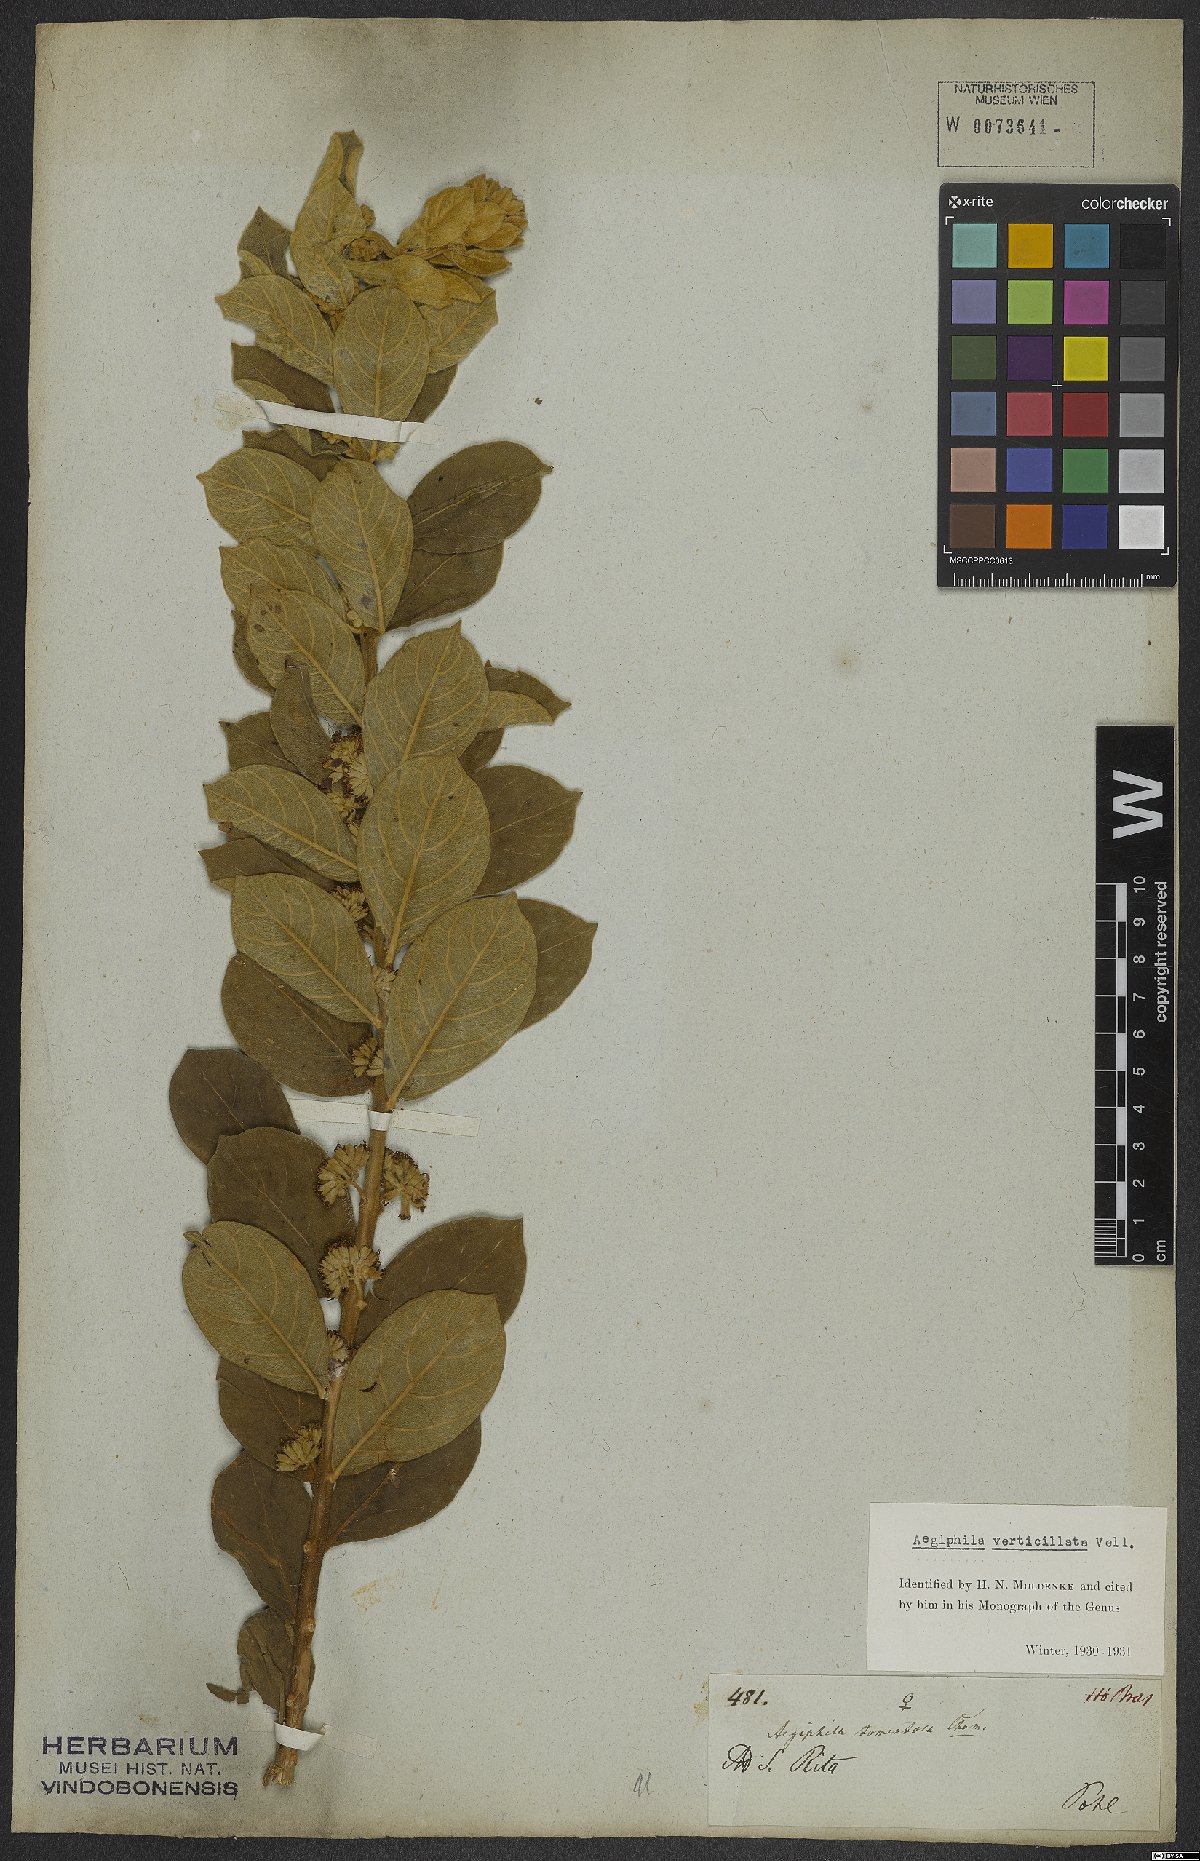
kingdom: Plantae
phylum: Tracheophyta
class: Magnoliopsida
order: Lamiales
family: Lamiaceae
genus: Aegiphila
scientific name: Aegiphila verticillata
